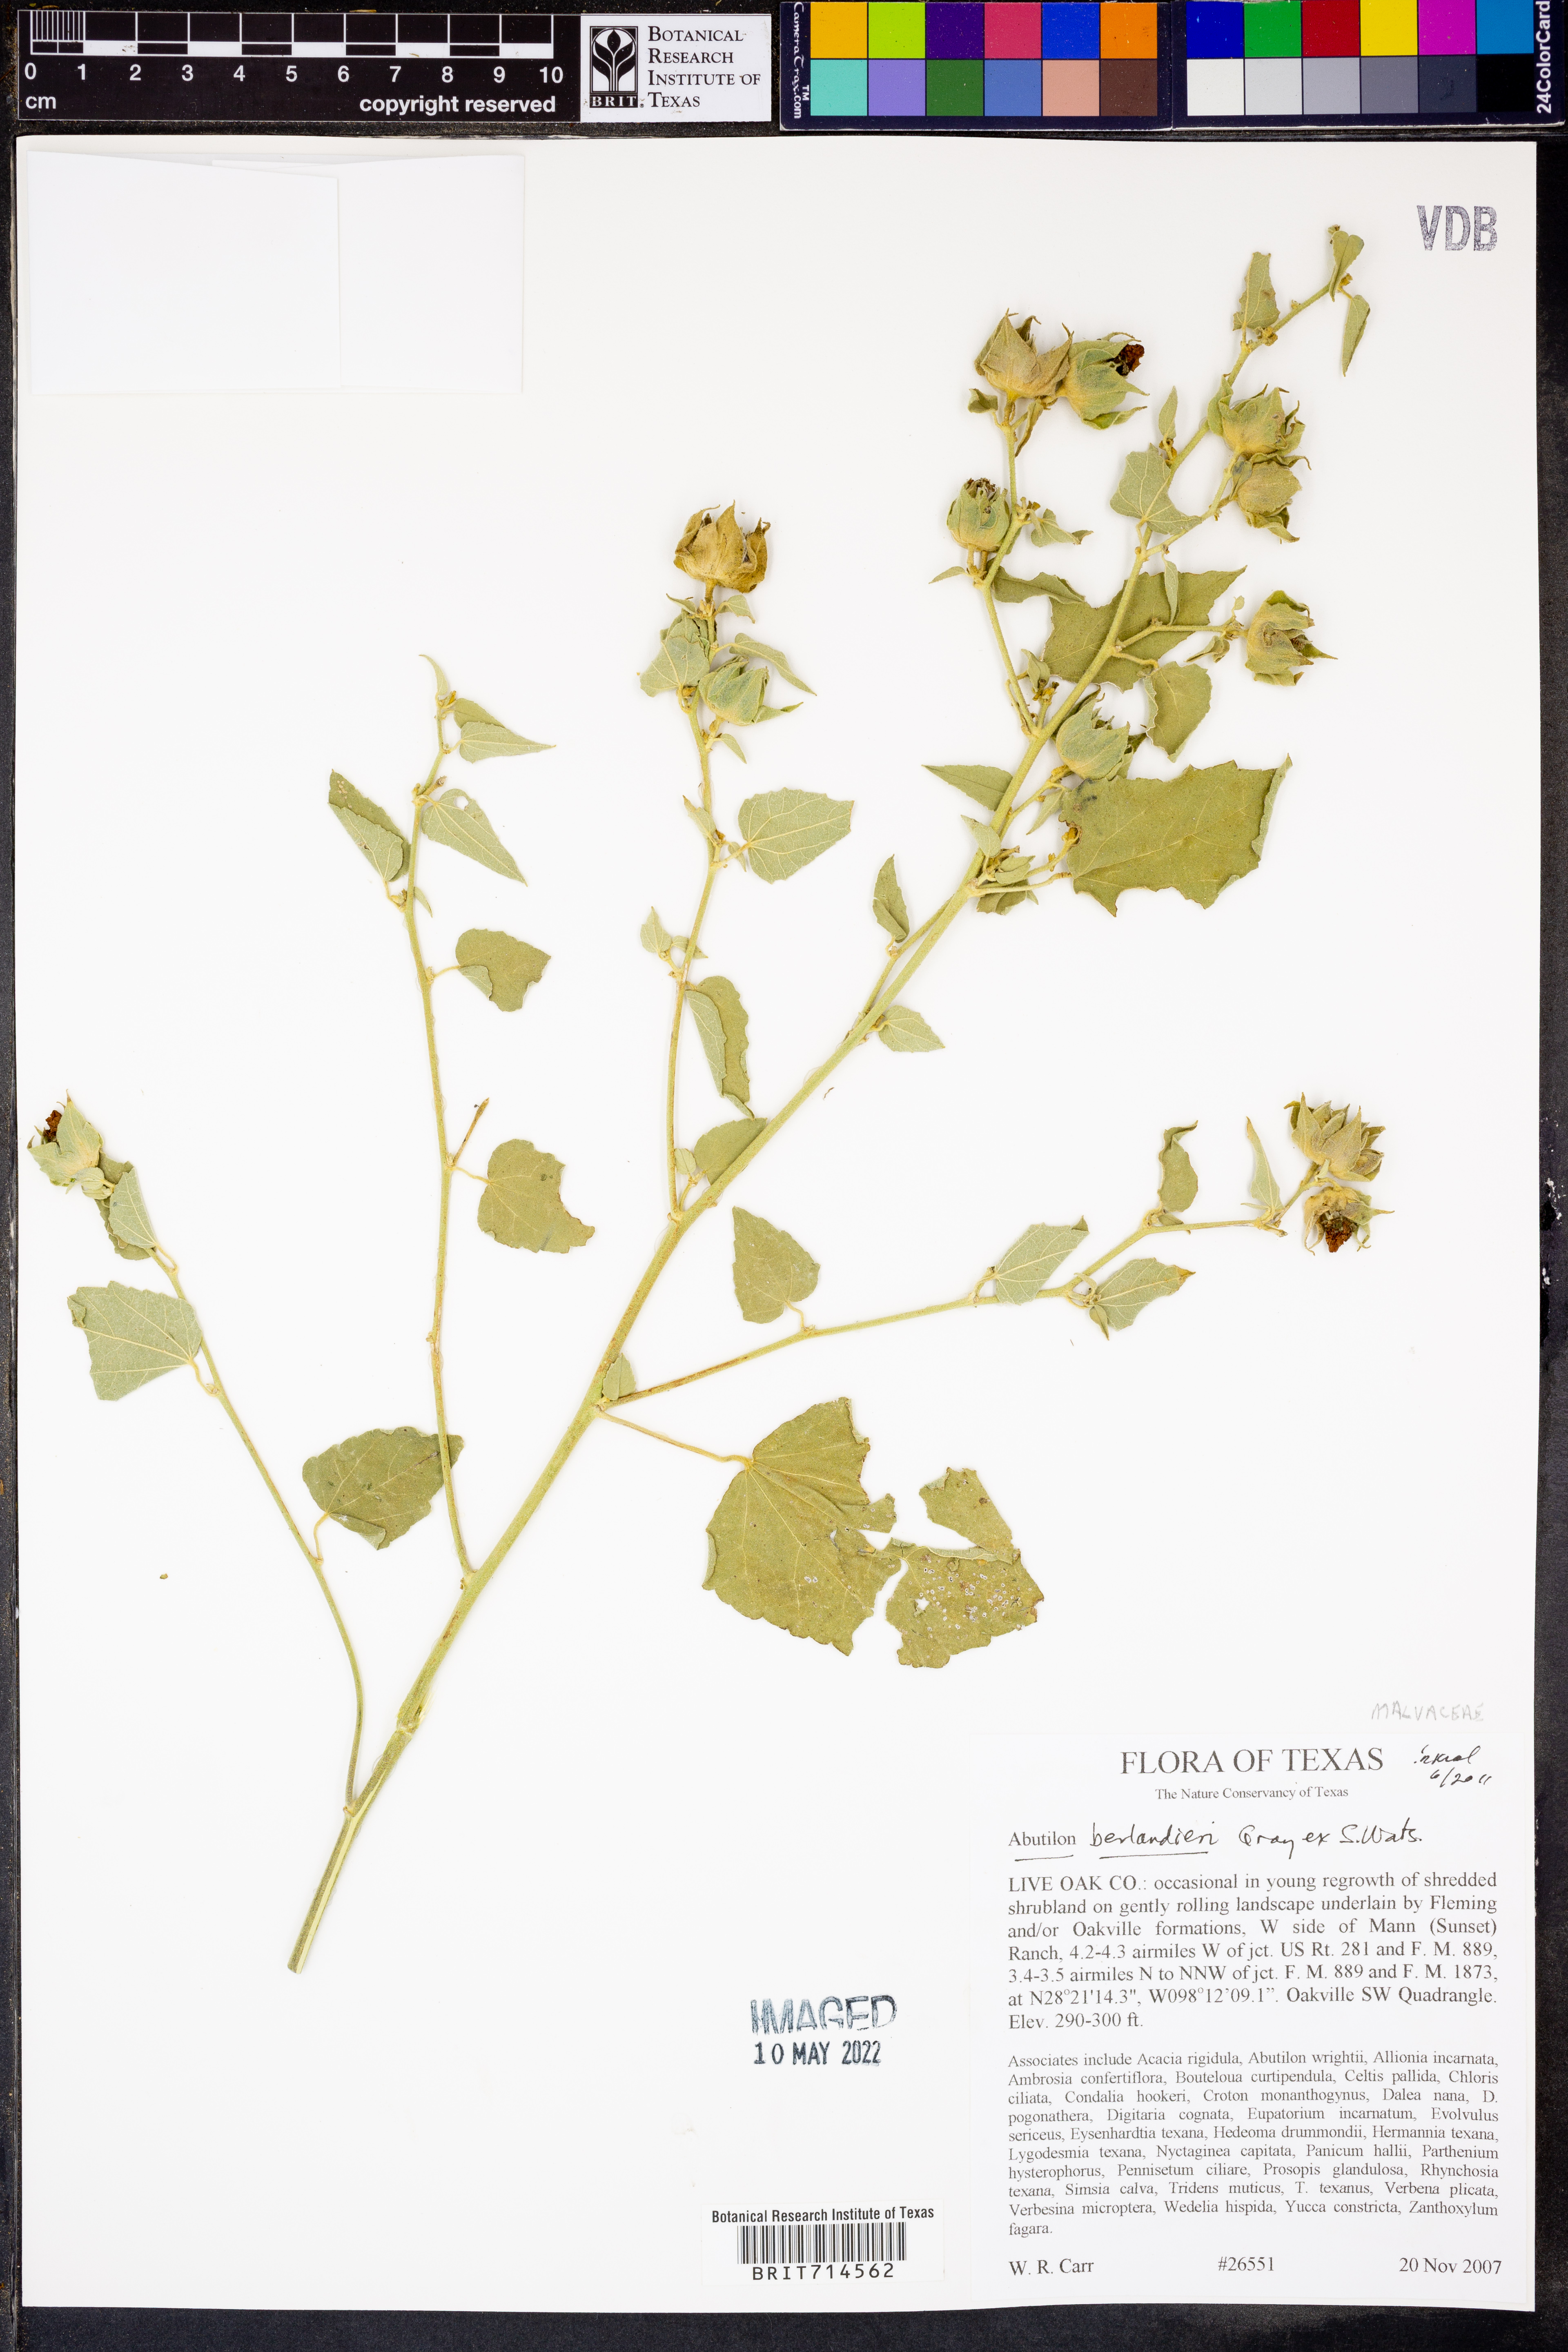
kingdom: Plantae
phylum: Tracheophyta
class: Magnoliopsida
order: Malvales
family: Malvaceae
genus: Abutilon
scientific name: Abutilon berlandieri
